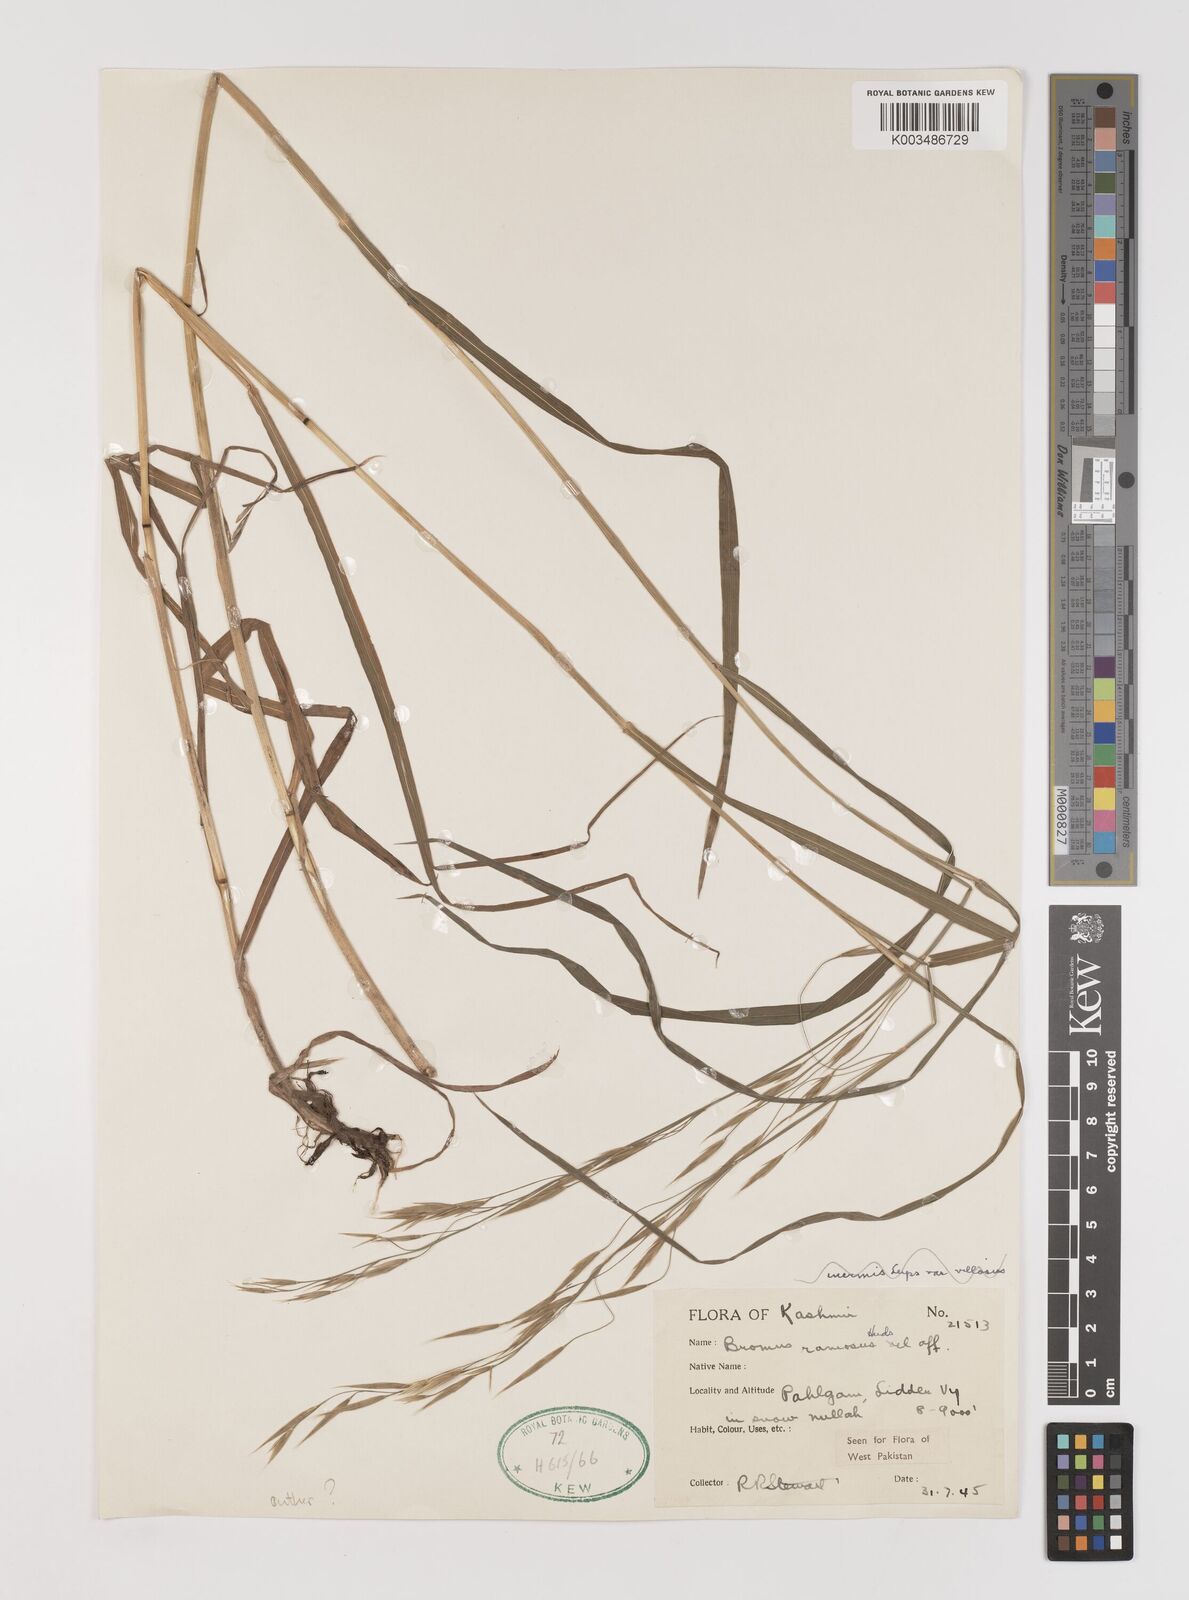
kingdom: Plantae
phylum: Tracheophyta
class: Liliopsida
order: Poales
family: Poaceae
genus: Brachypodium
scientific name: Brachypodium retusum
